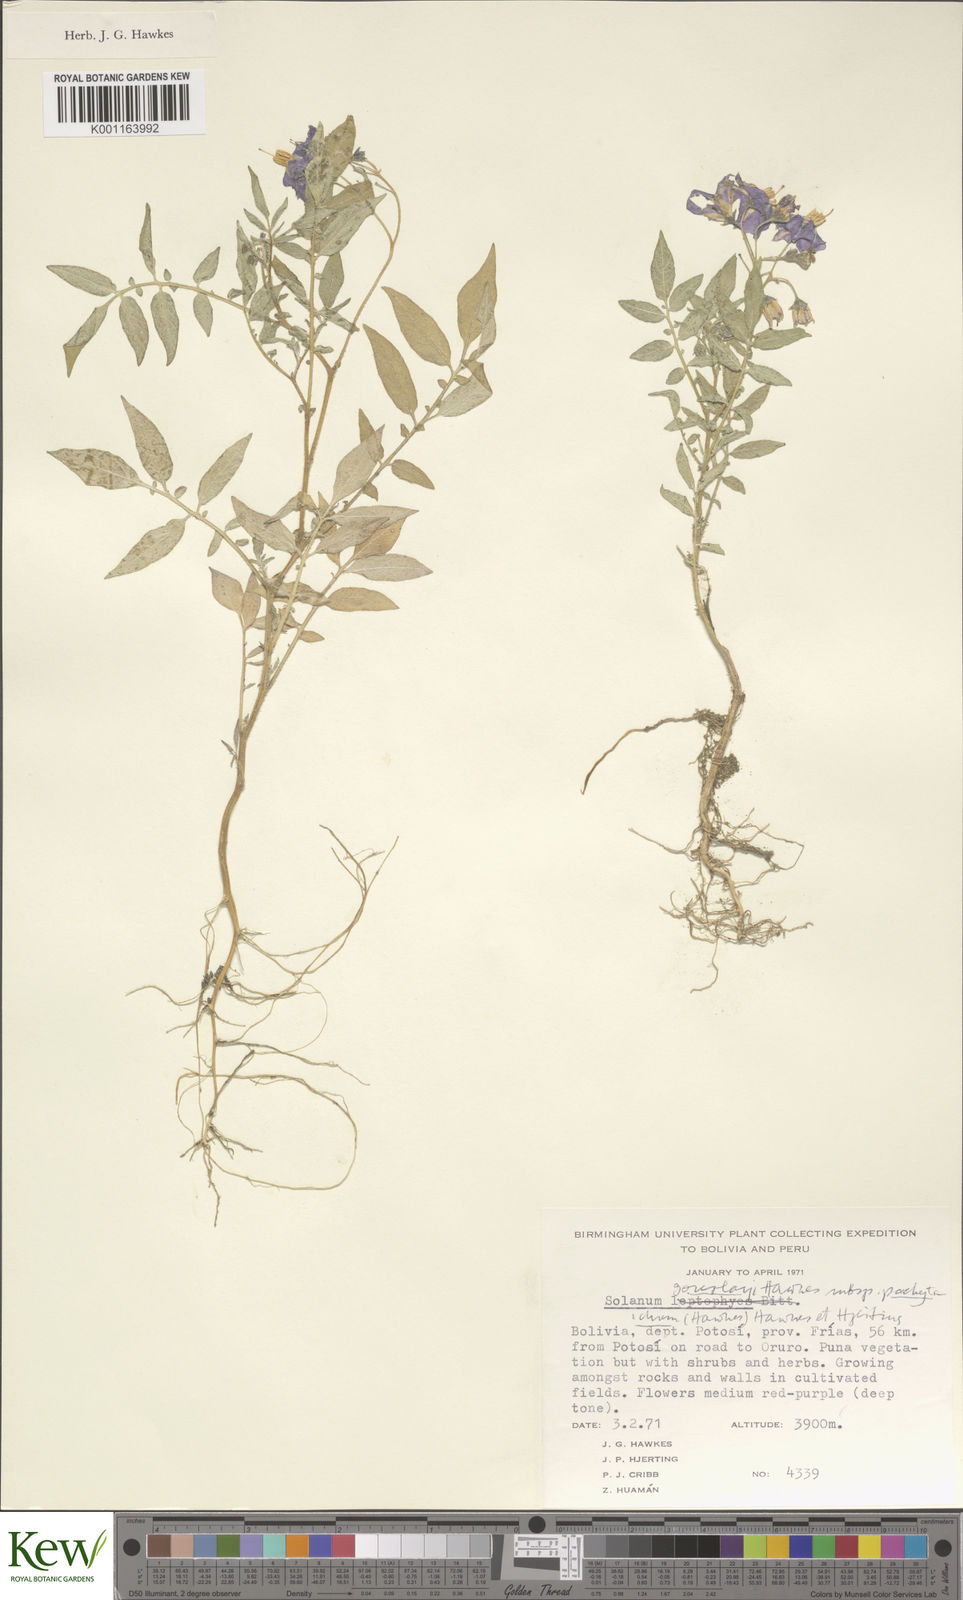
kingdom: Plantae
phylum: Tracheophyta
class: Magnoliopsida
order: Solanales
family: Solanaceae
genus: Solanum
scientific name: Solanum brevicaule
